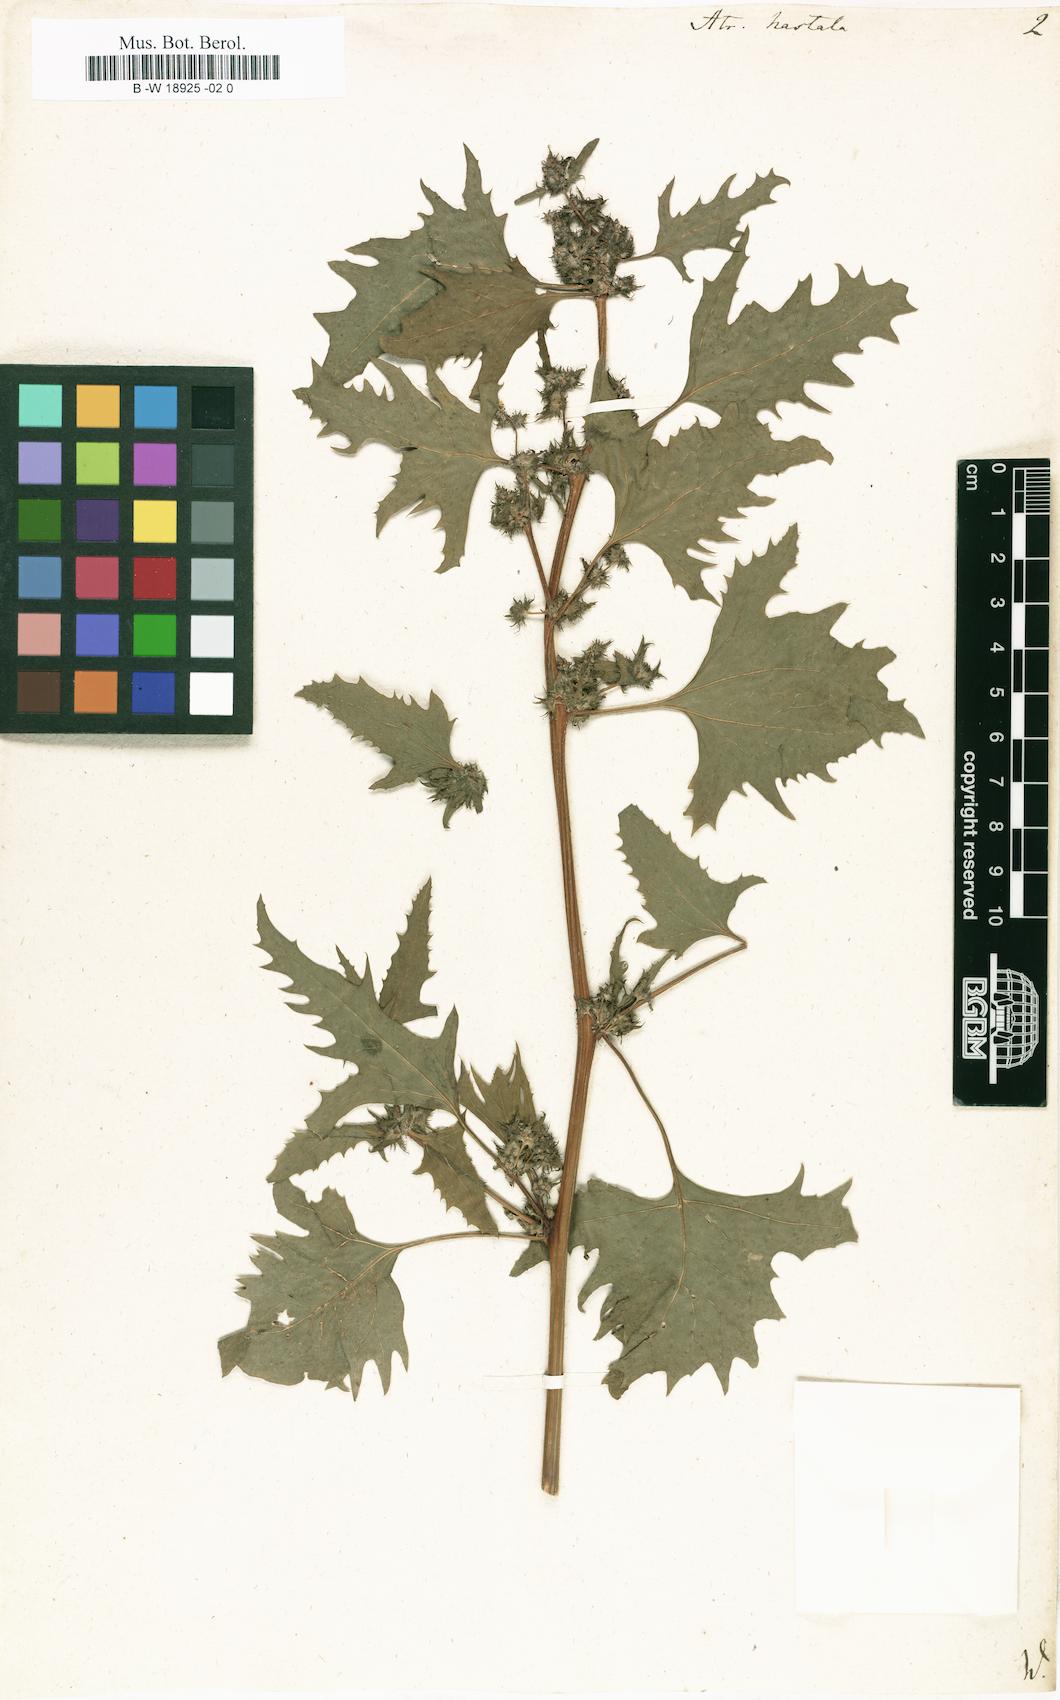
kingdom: Plantae
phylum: Tracheophyta
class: Magnoliopsida
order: Caryophyllales
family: Amaranthaceae
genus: Atriplex
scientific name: Atriplex calotheca
